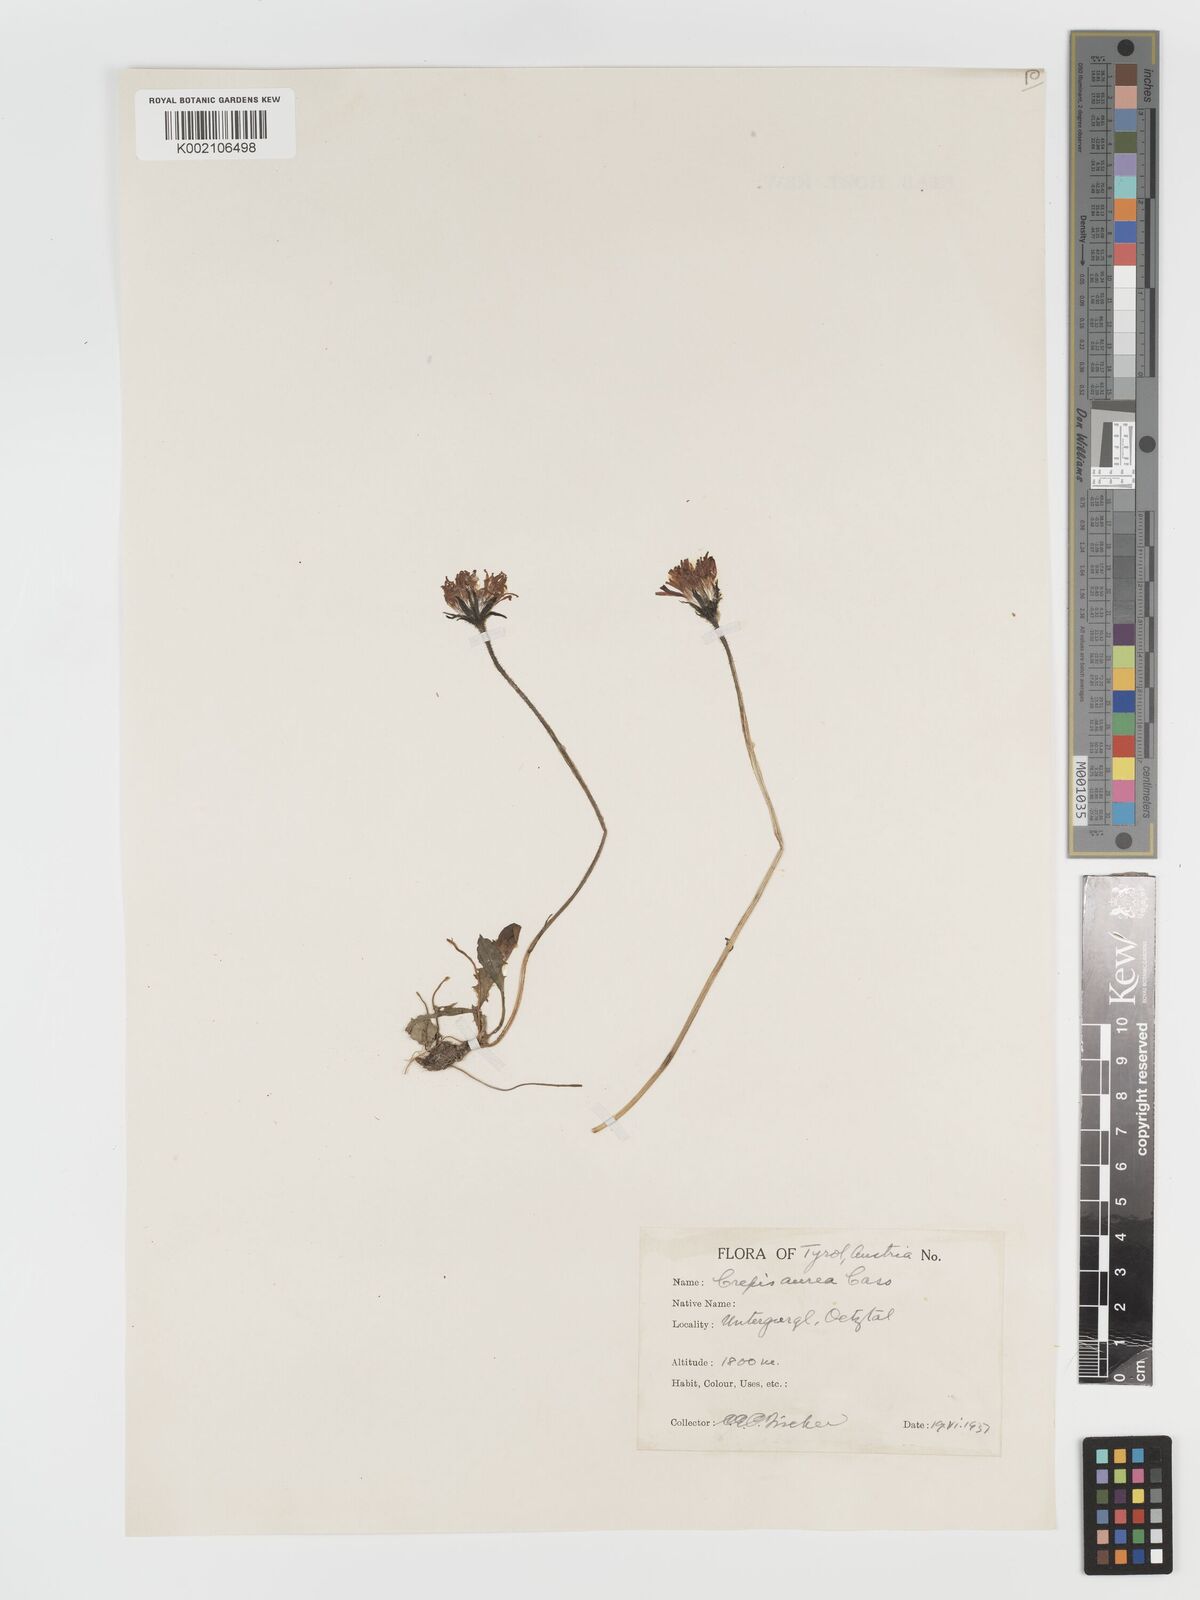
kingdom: Plantae
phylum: Tracheophyta
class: Magnoliopsida
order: Asterales
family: Asteraceae
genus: Crepis
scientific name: Crepis aurea
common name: Golden hawk's-beard
